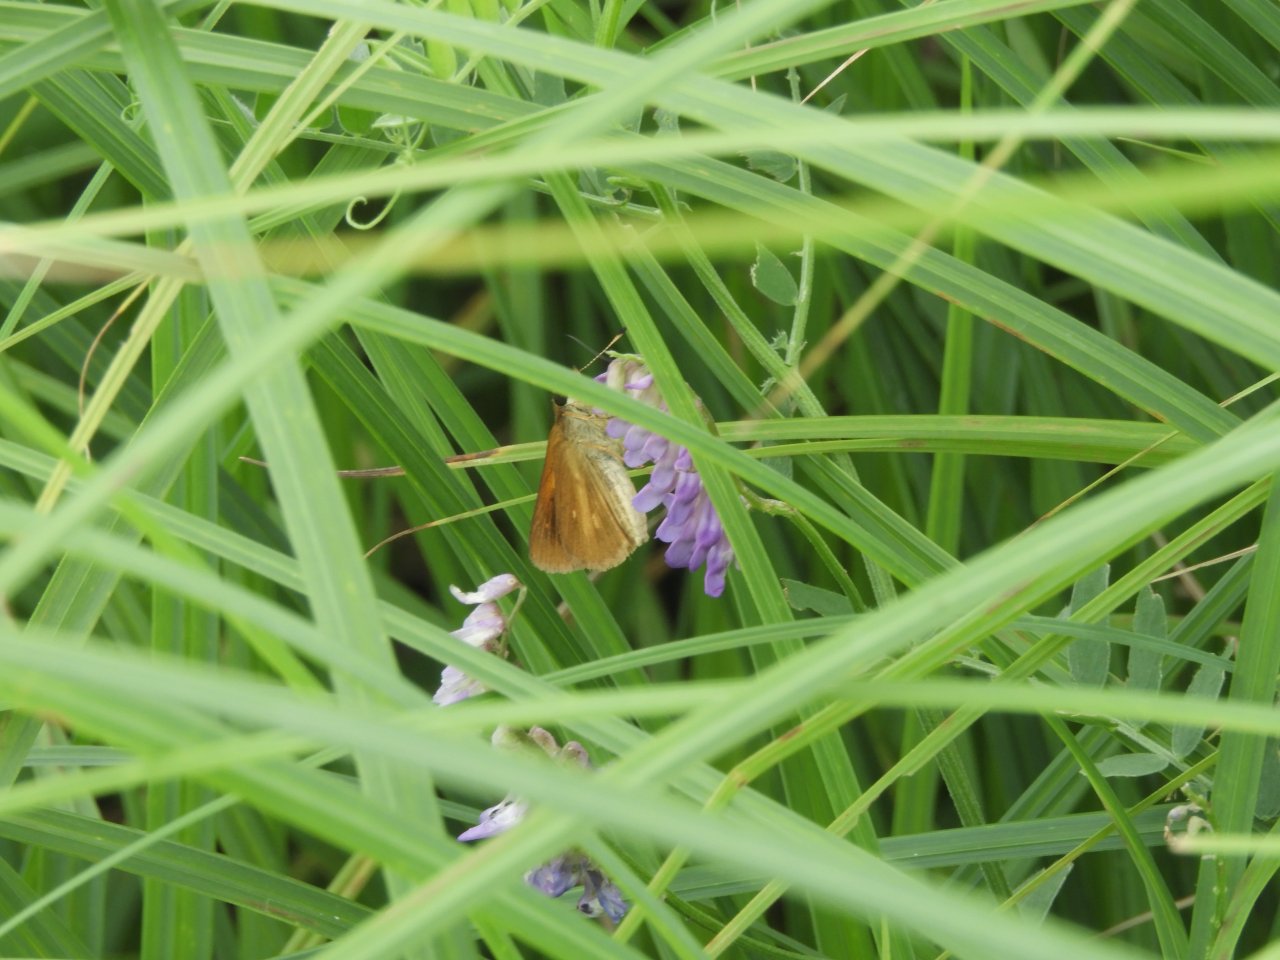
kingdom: Animalia
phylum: Arthropoda
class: Insecta
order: Lepidoptera
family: Hesperiidae
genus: Poanes
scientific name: Poanes viator
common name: Broad-winged Skipper
